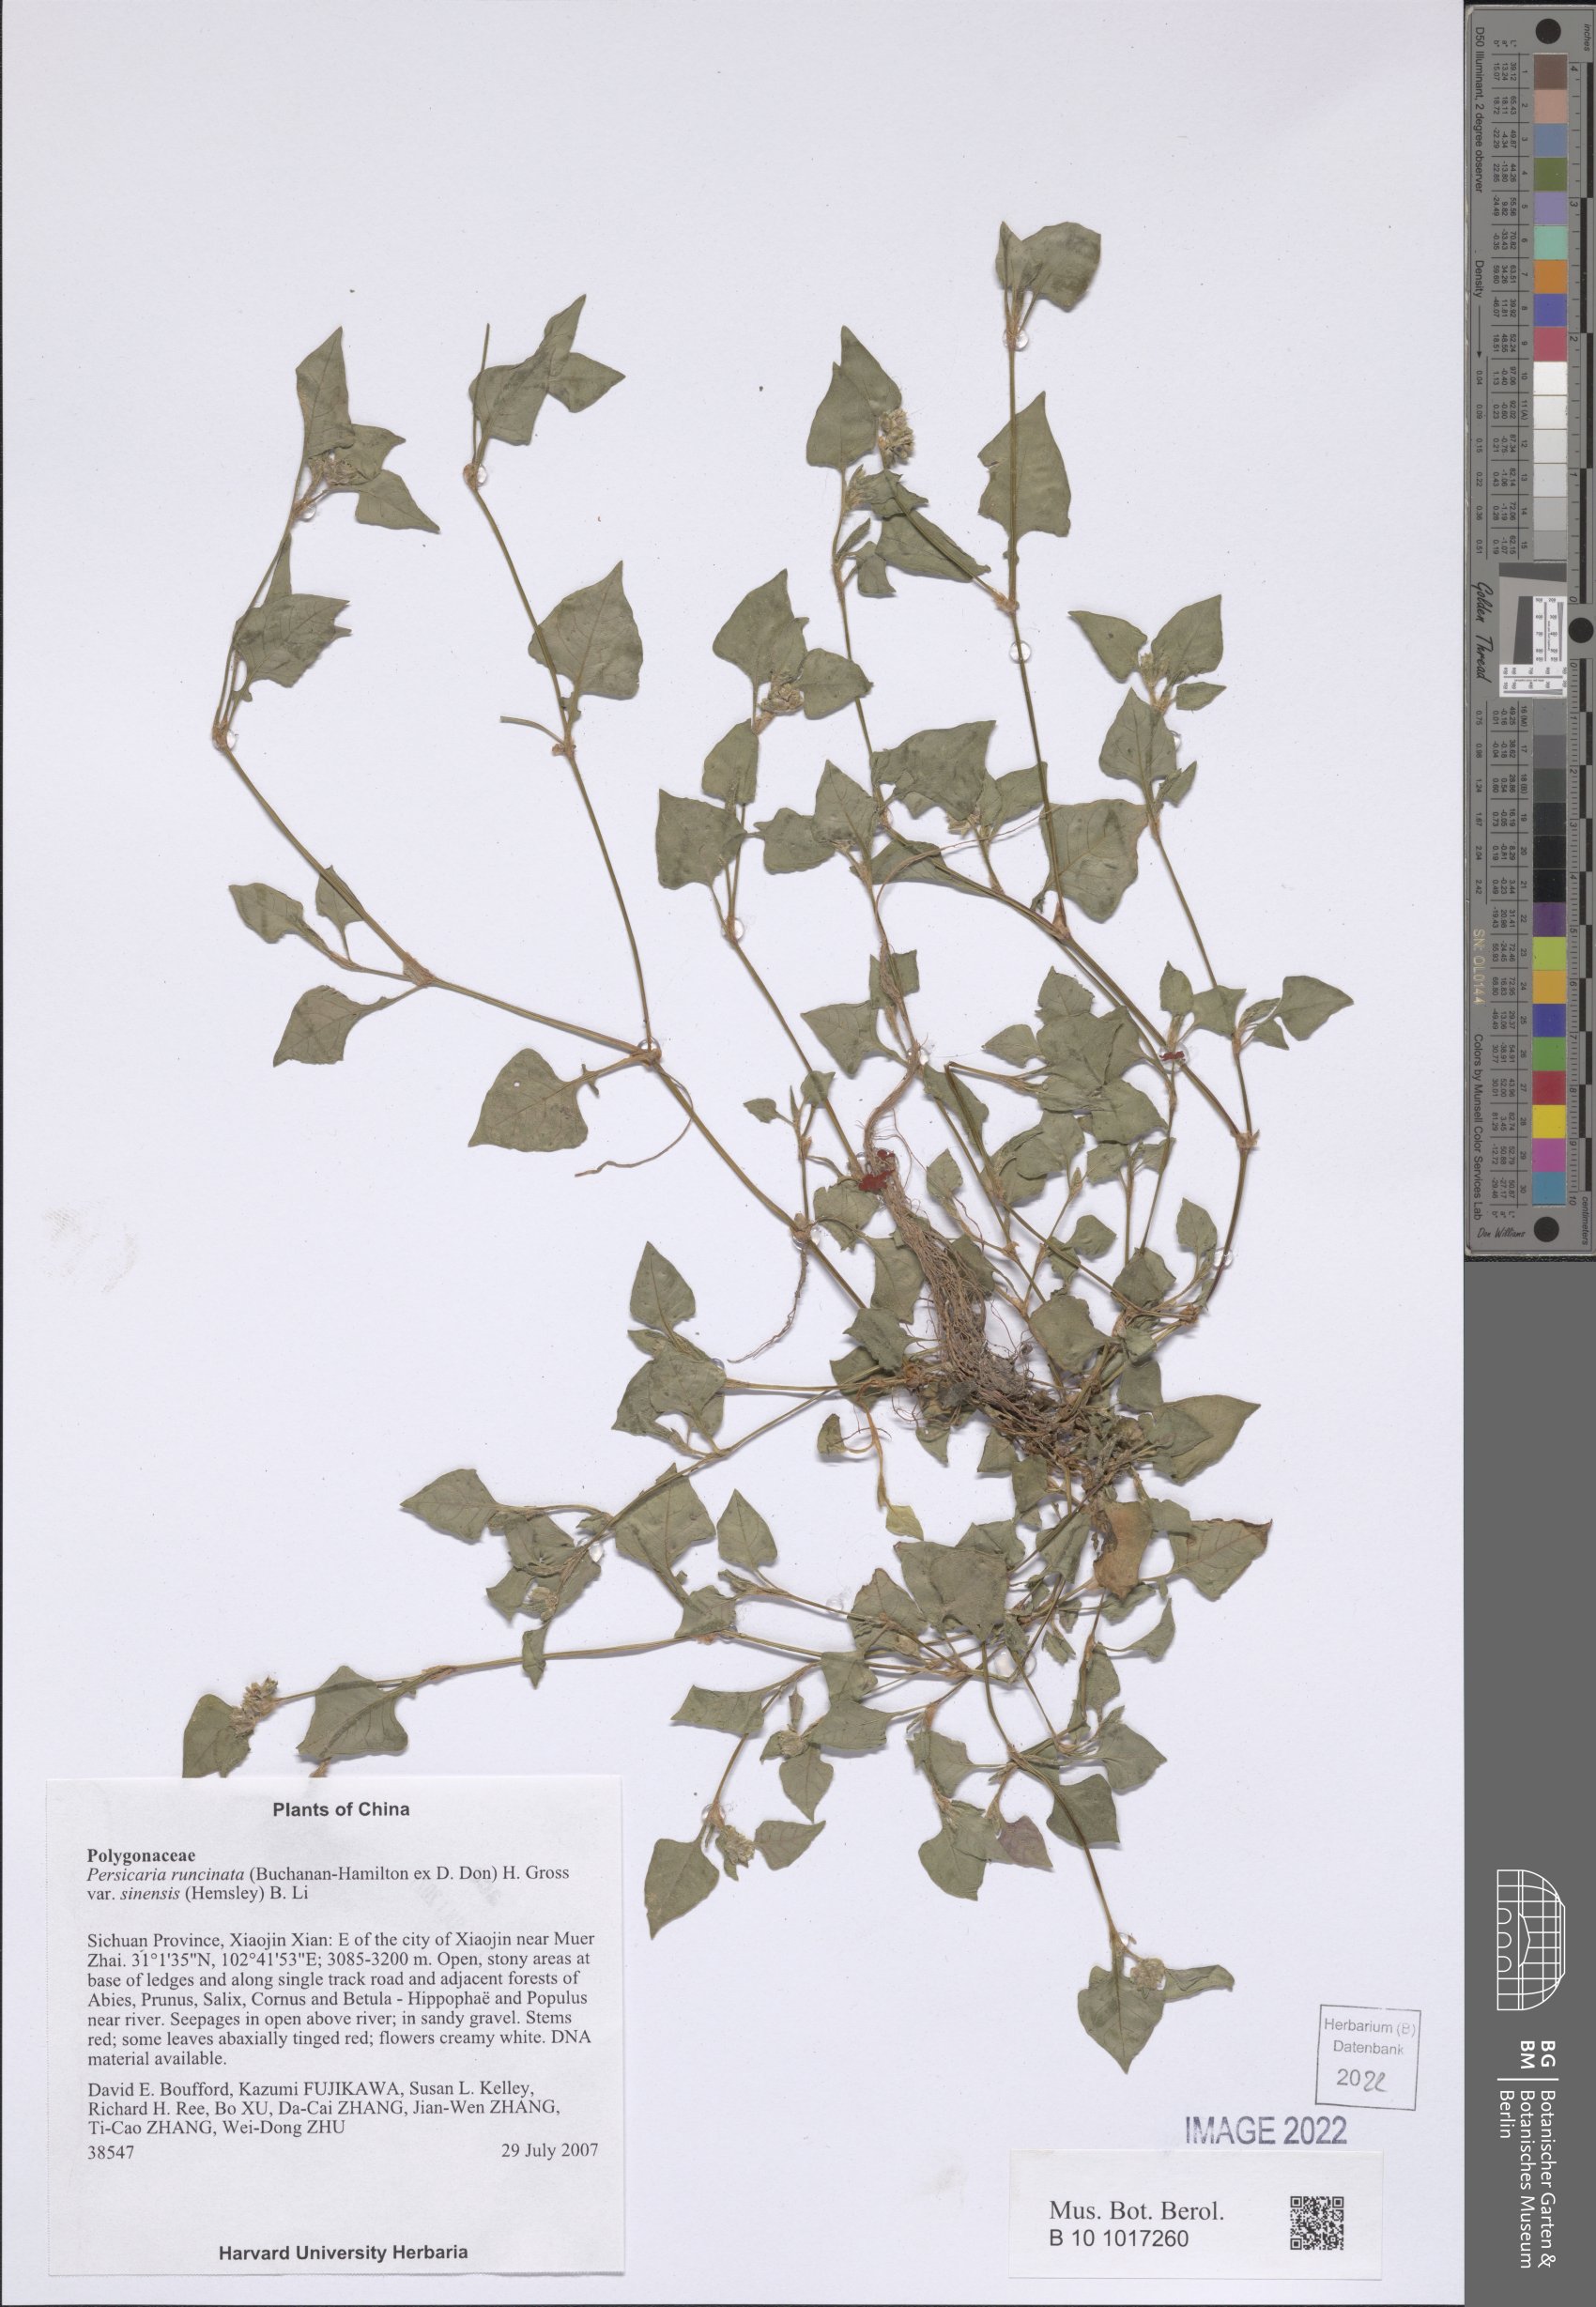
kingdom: Plantae
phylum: Tracheophyta
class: Magnoliopsida
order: Caryophyllales
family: Polygonaceae
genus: Persicaria
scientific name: Persicaria runcinata
